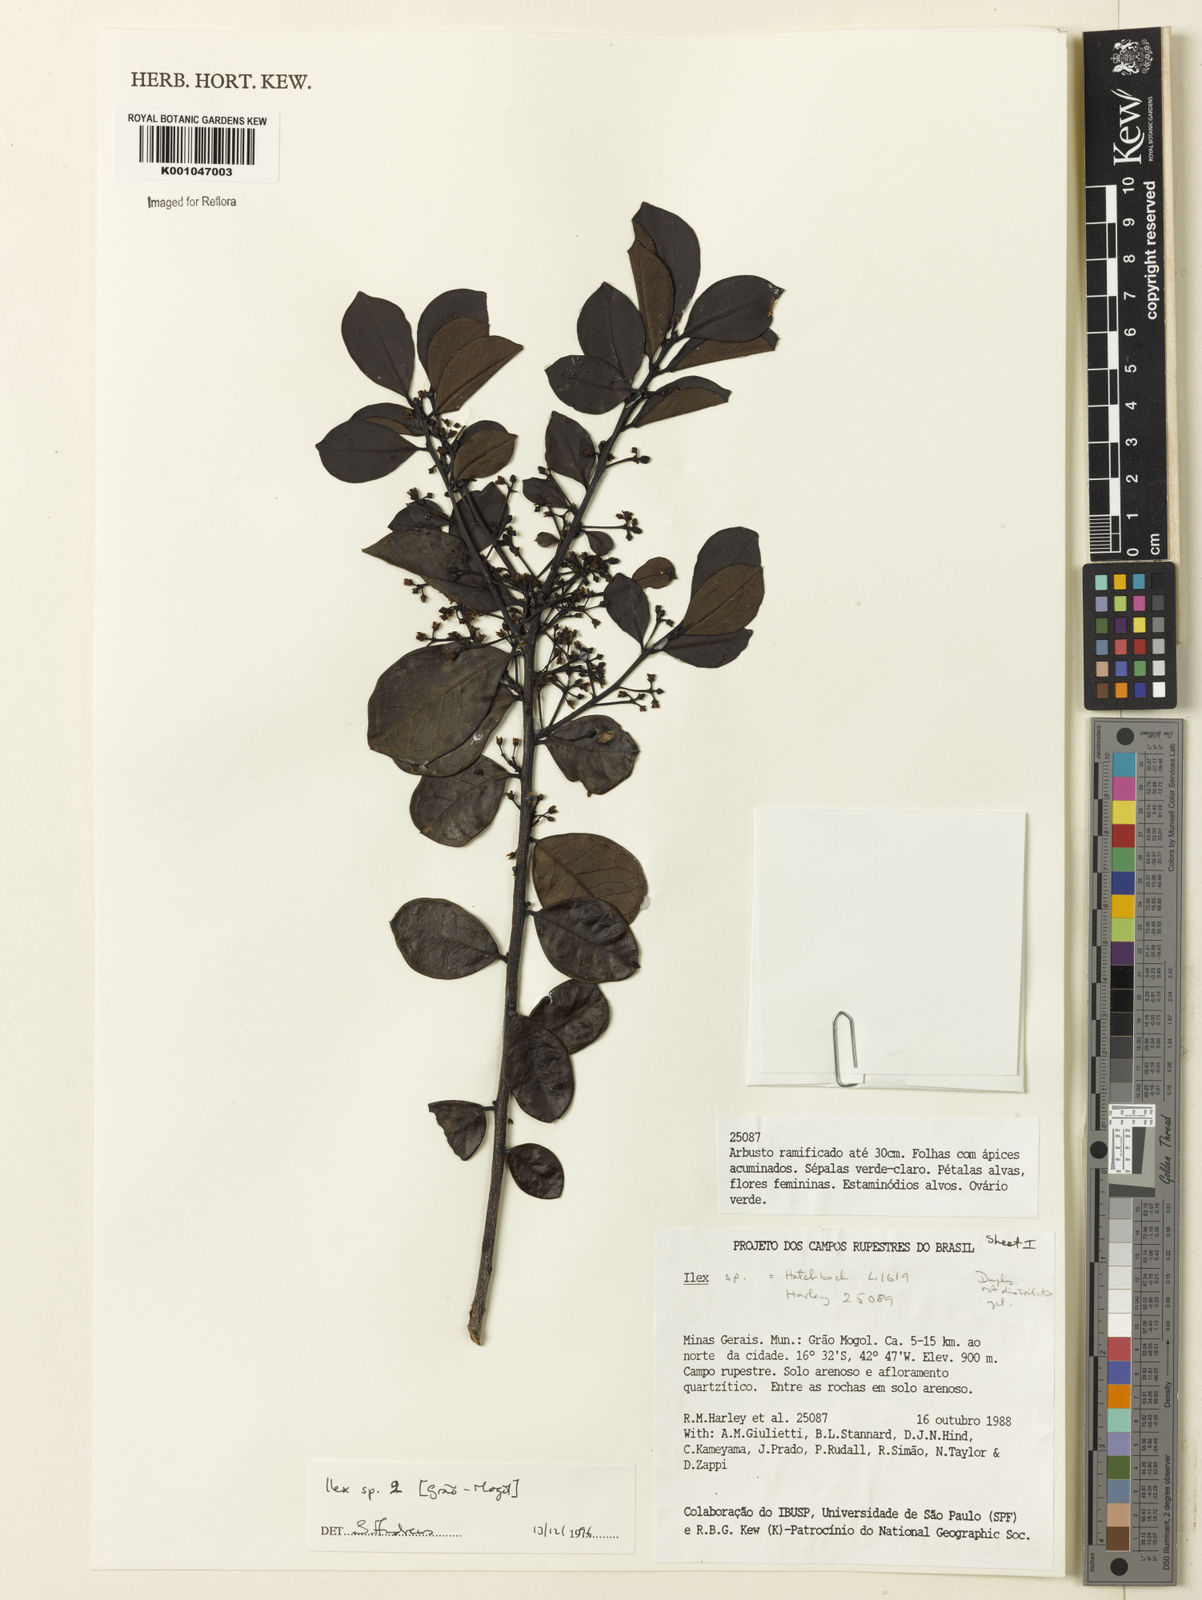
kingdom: Plantae
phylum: Tracheophyta
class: Magnoliopsida
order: Aquifoliales
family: Aquifoliaceae
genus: Ilex
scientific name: Ilex
